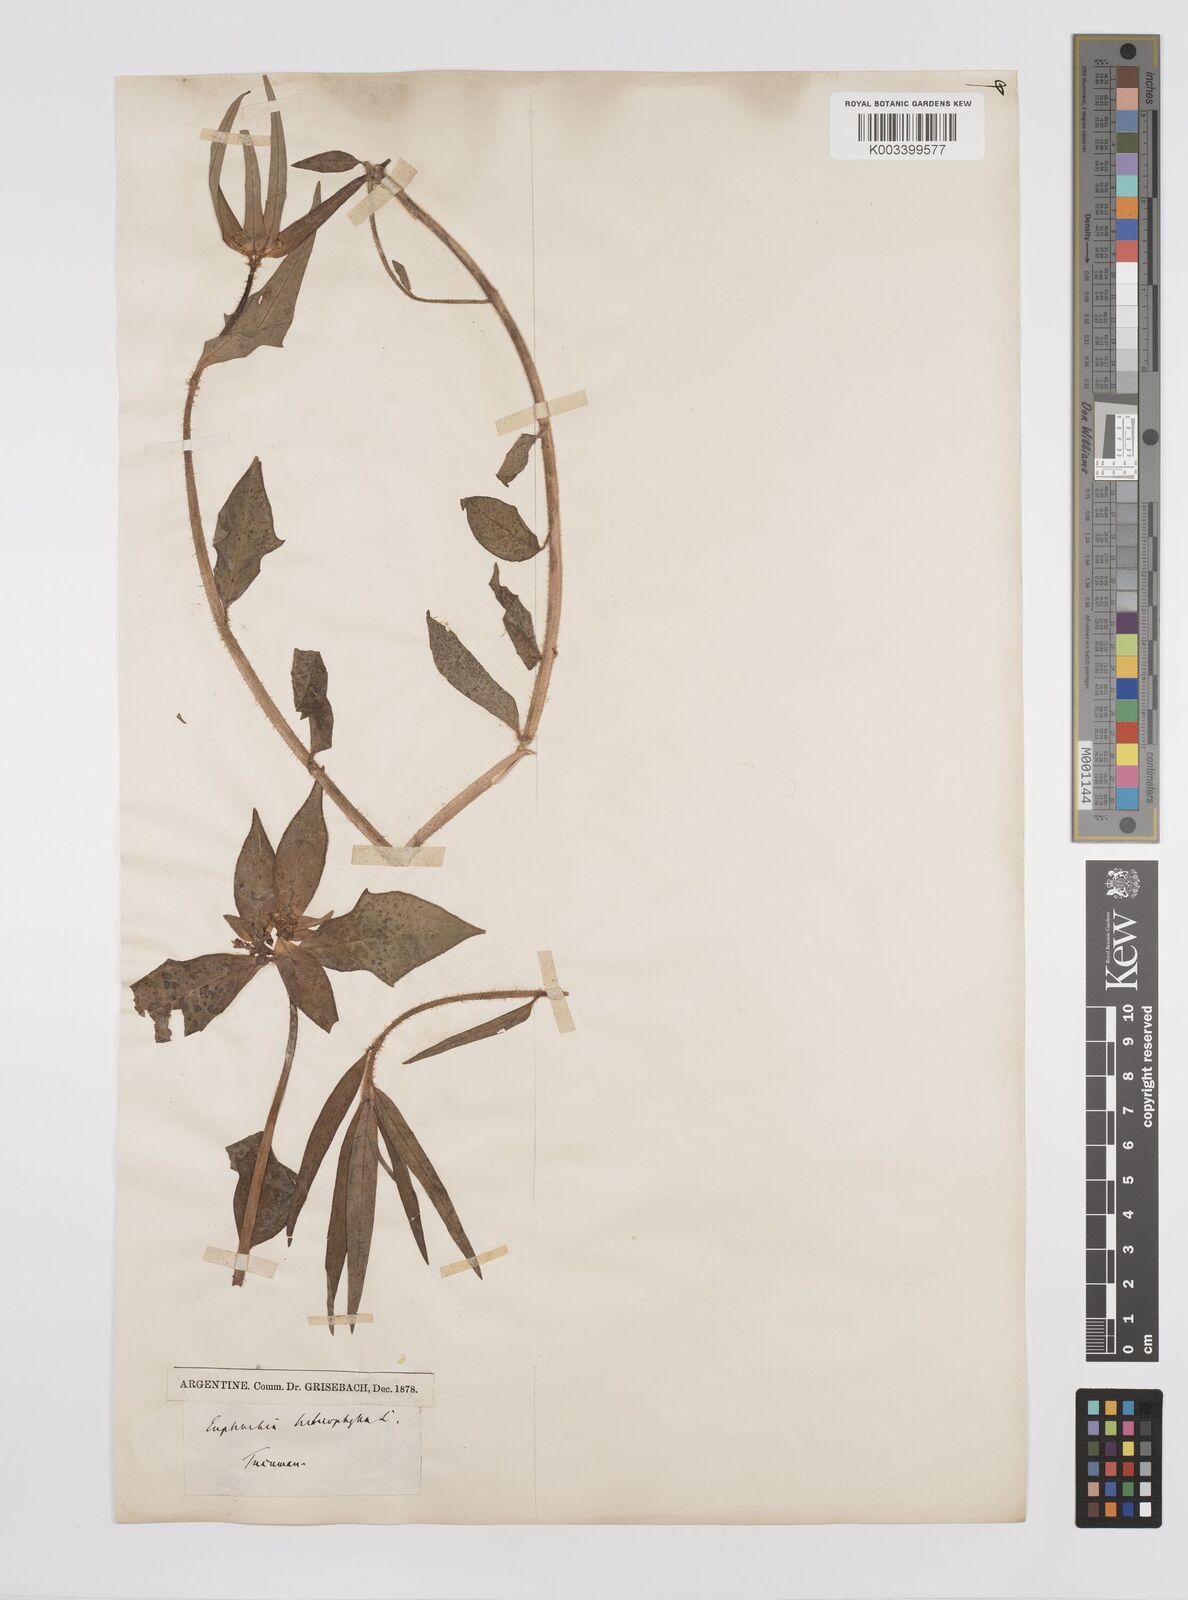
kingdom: Plantae
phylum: Tracheophyta
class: Magnoliopsida
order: Malpighiales
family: Euphorbiaceae
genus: Euphorbia
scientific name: Euphorbia
